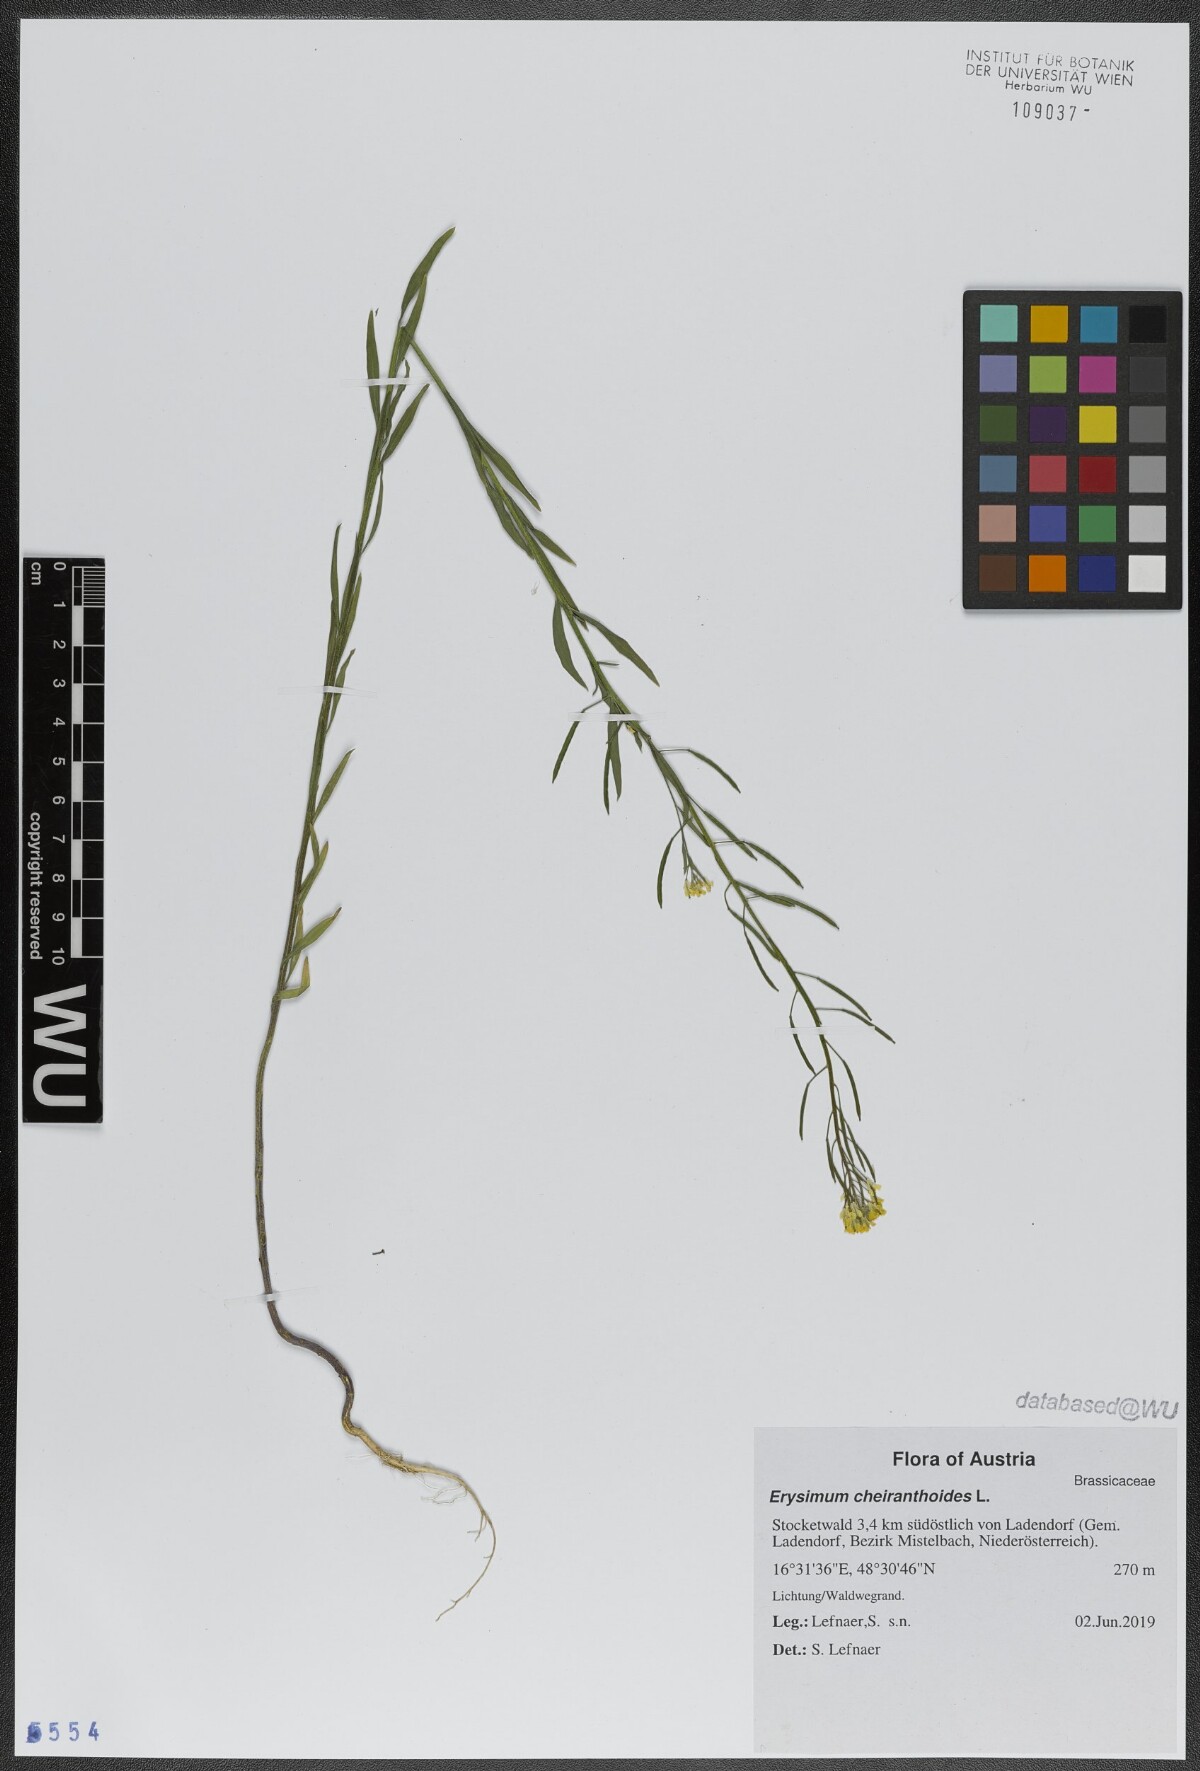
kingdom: Plantae
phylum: Tracheophyta
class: Magnoliopsida
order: Brassicales
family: Brassicaceae
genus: Erysimum
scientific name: Erysimum cheiranthoides
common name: Treacle mustard
